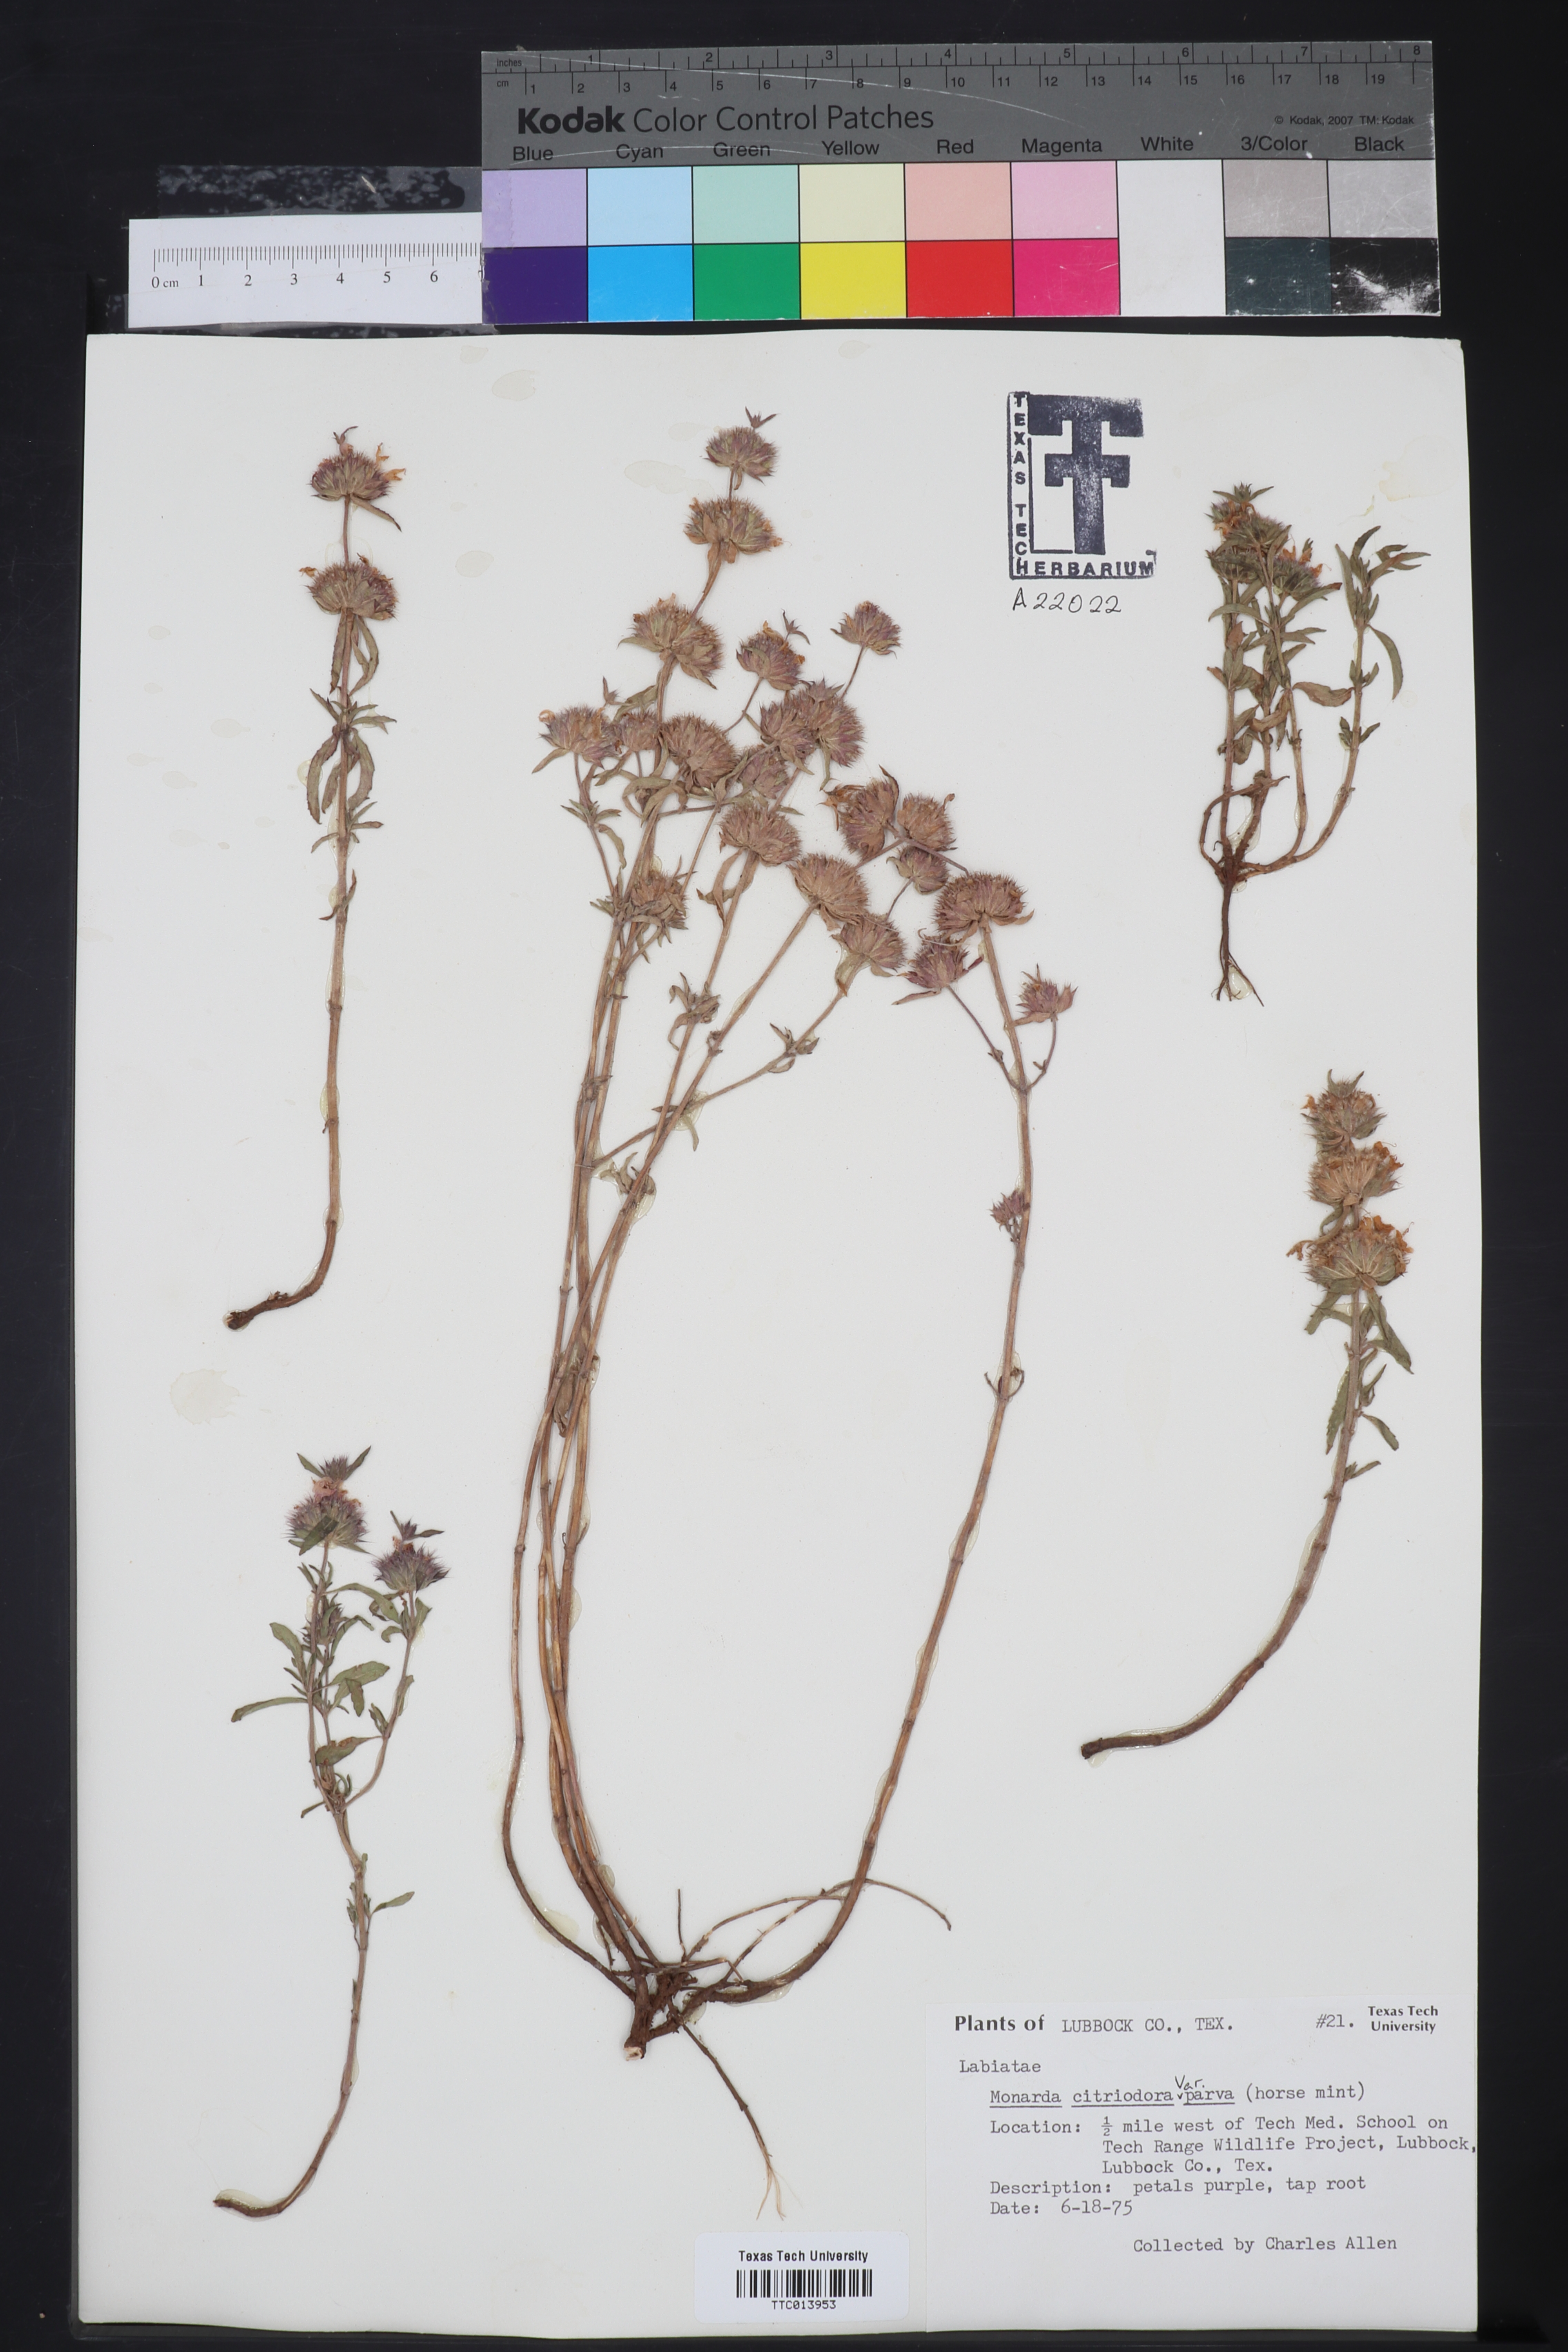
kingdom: Plantae
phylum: Tracheophyta
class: Magnoliopsida
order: Lamiales
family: Lamiaceae
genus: Monarda
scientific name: Monarda citriodora
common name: Lemon beebalm
